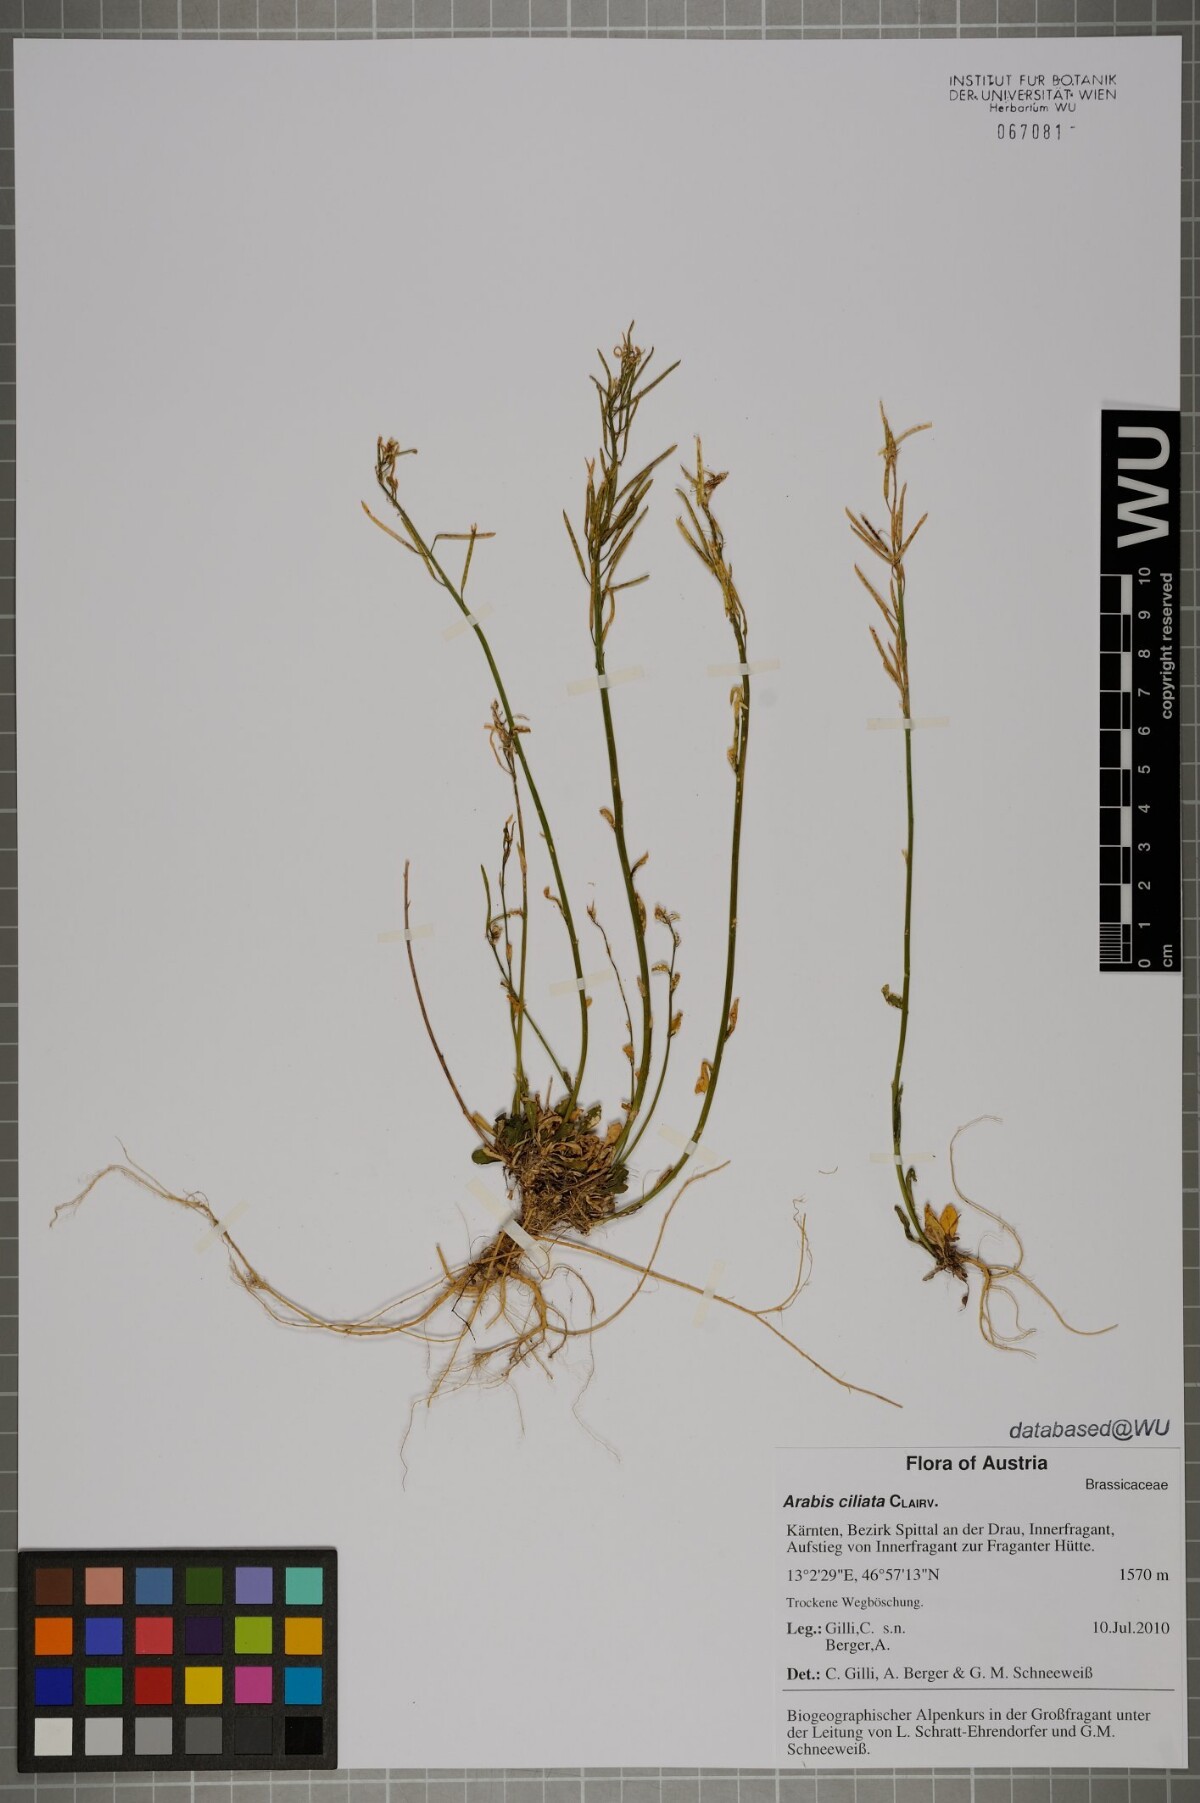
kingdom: Plantae
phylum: Tracheophyta
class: Magnoliopsida
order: Brassicales
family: Brassicaceae
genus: Arabis
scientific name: Arabis ciliata
